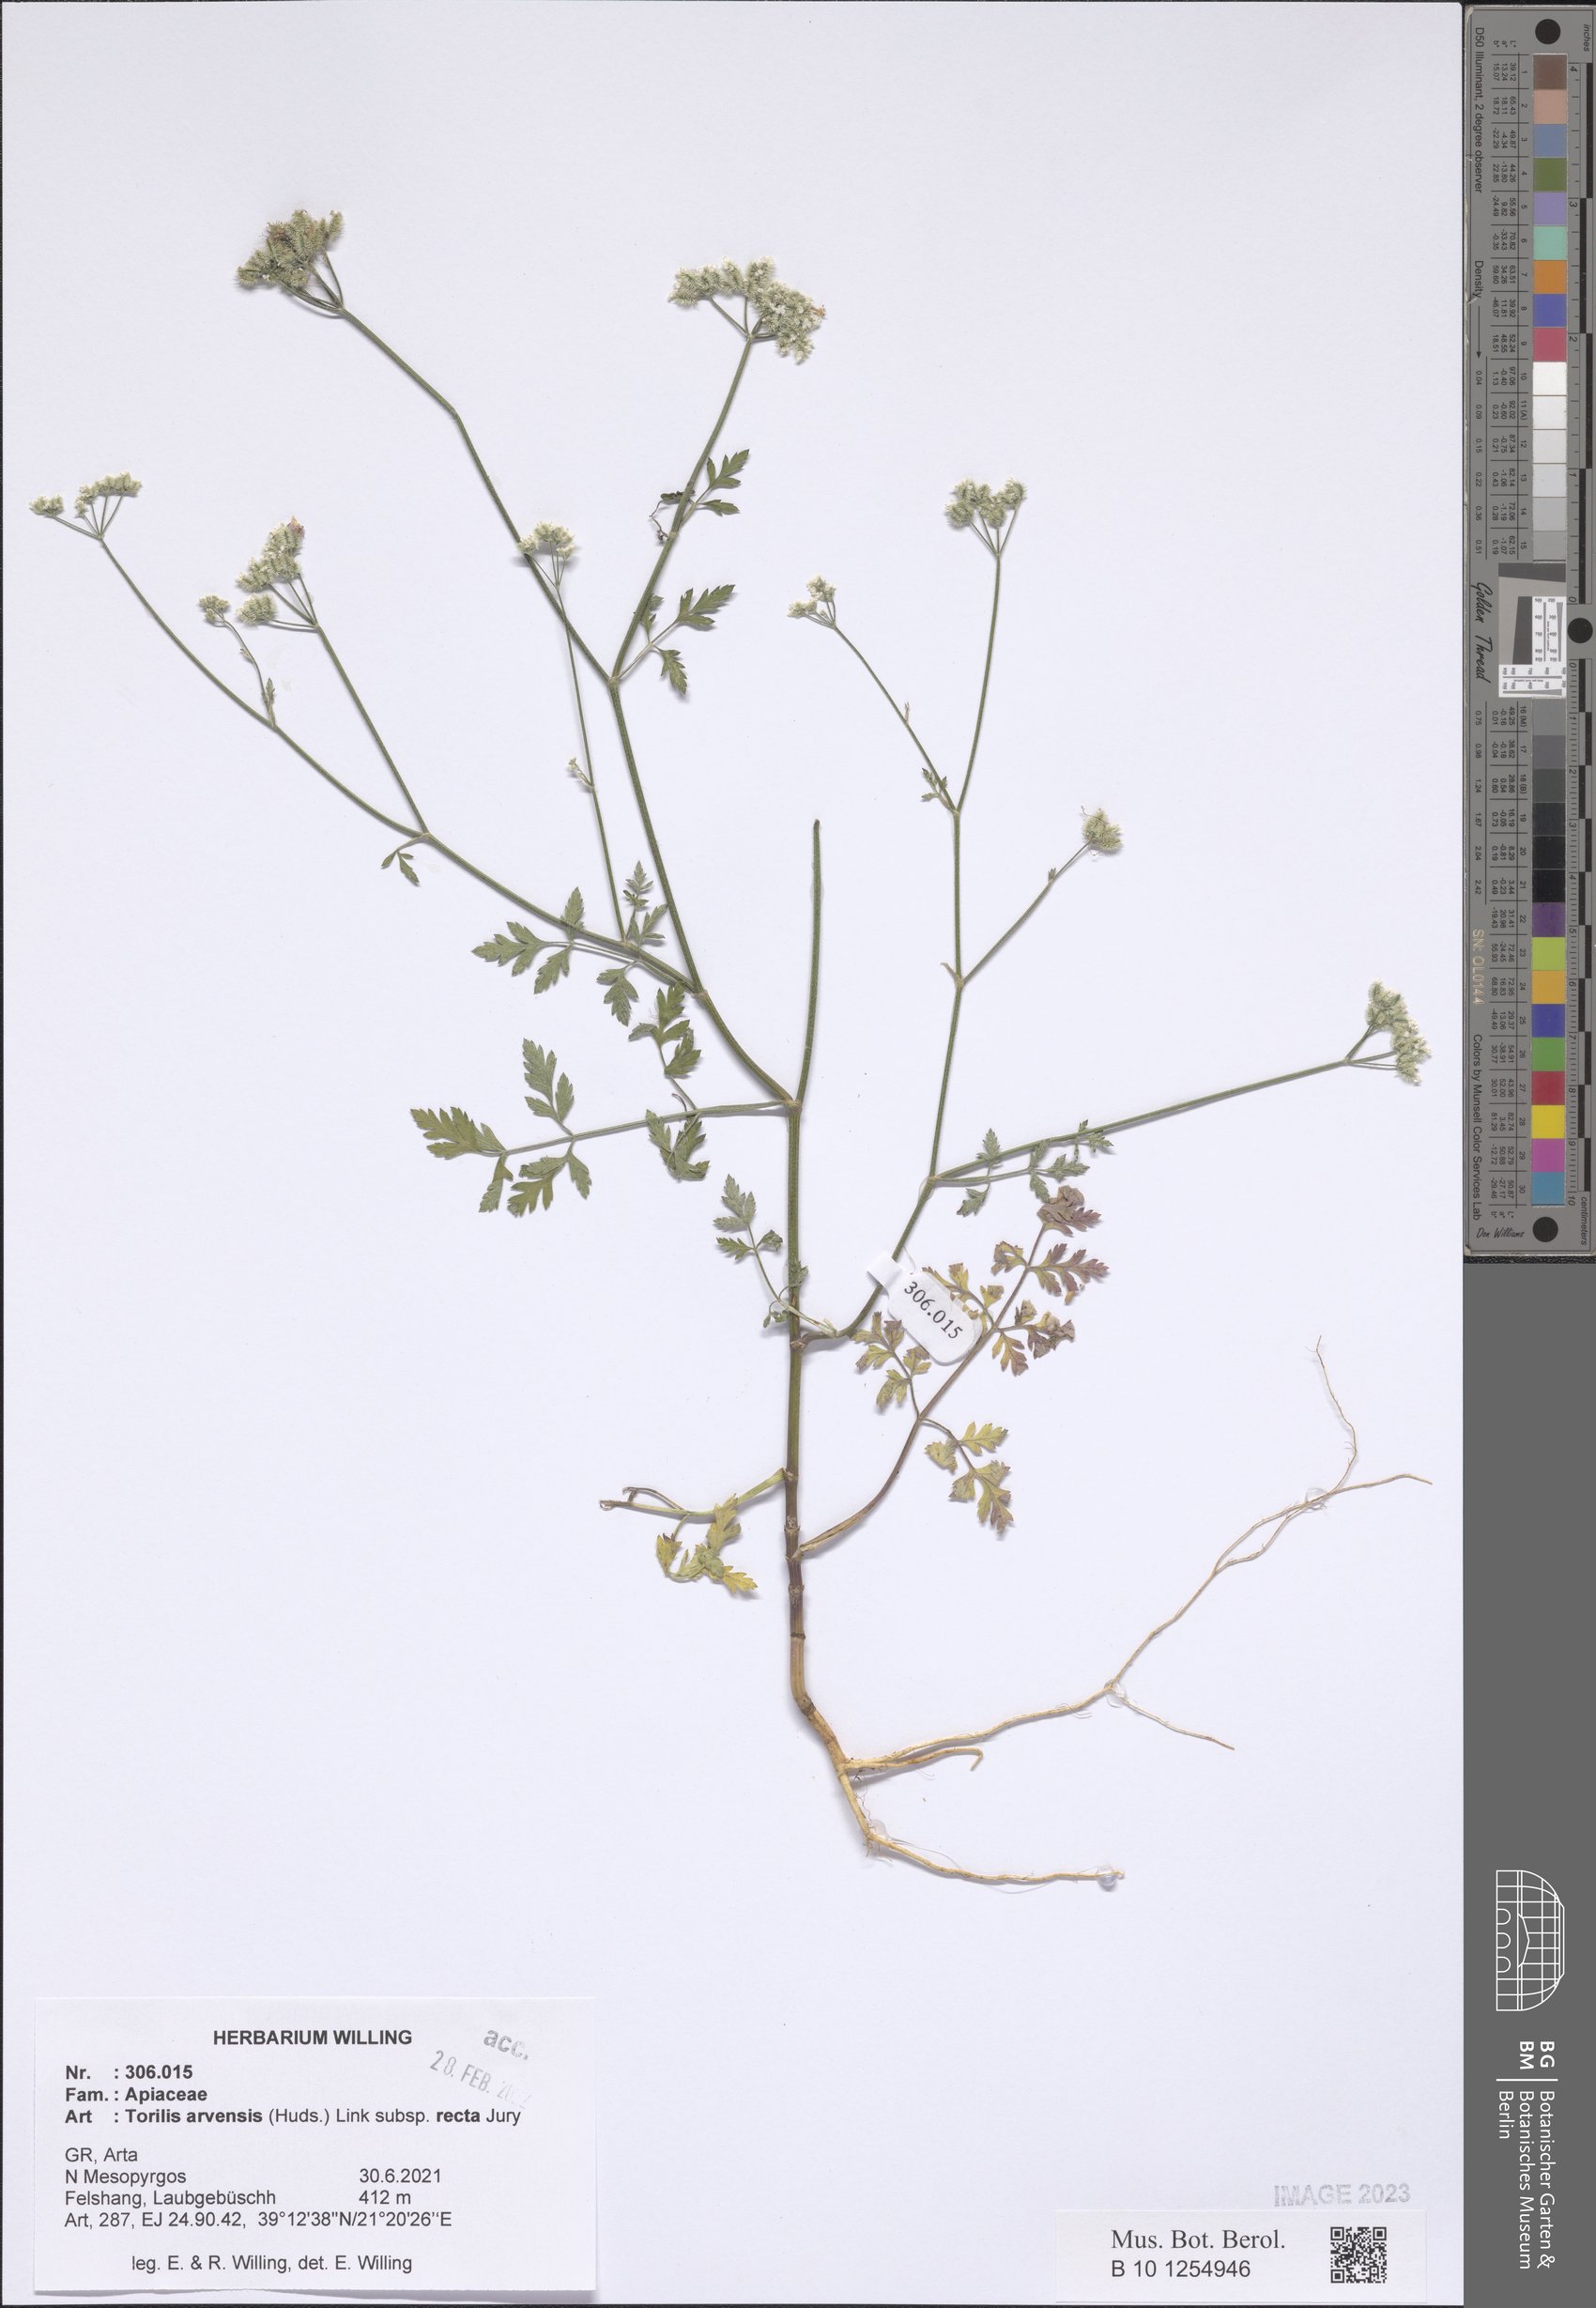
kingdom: Plantae
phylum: Tracheophyta
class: Magnoliopsida
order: Apiales
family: Apiaceae
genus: Torilis
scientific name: Torilis arvensis
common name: Spreading hedge-parsley
